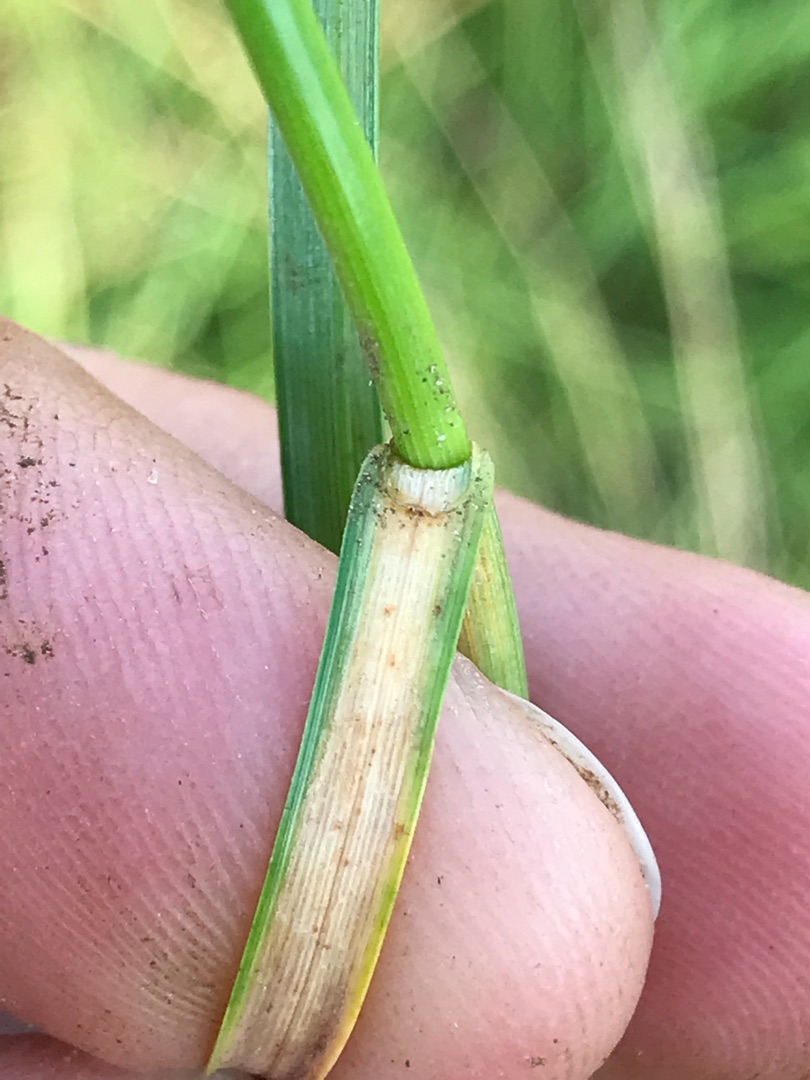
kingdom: Plantae
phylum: Tracheophyta
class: Liliopsida
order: Poales
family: Cyperaceae
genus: Blysmus
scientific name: Blysmus compressus
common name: Fladtrykt kogleaks
